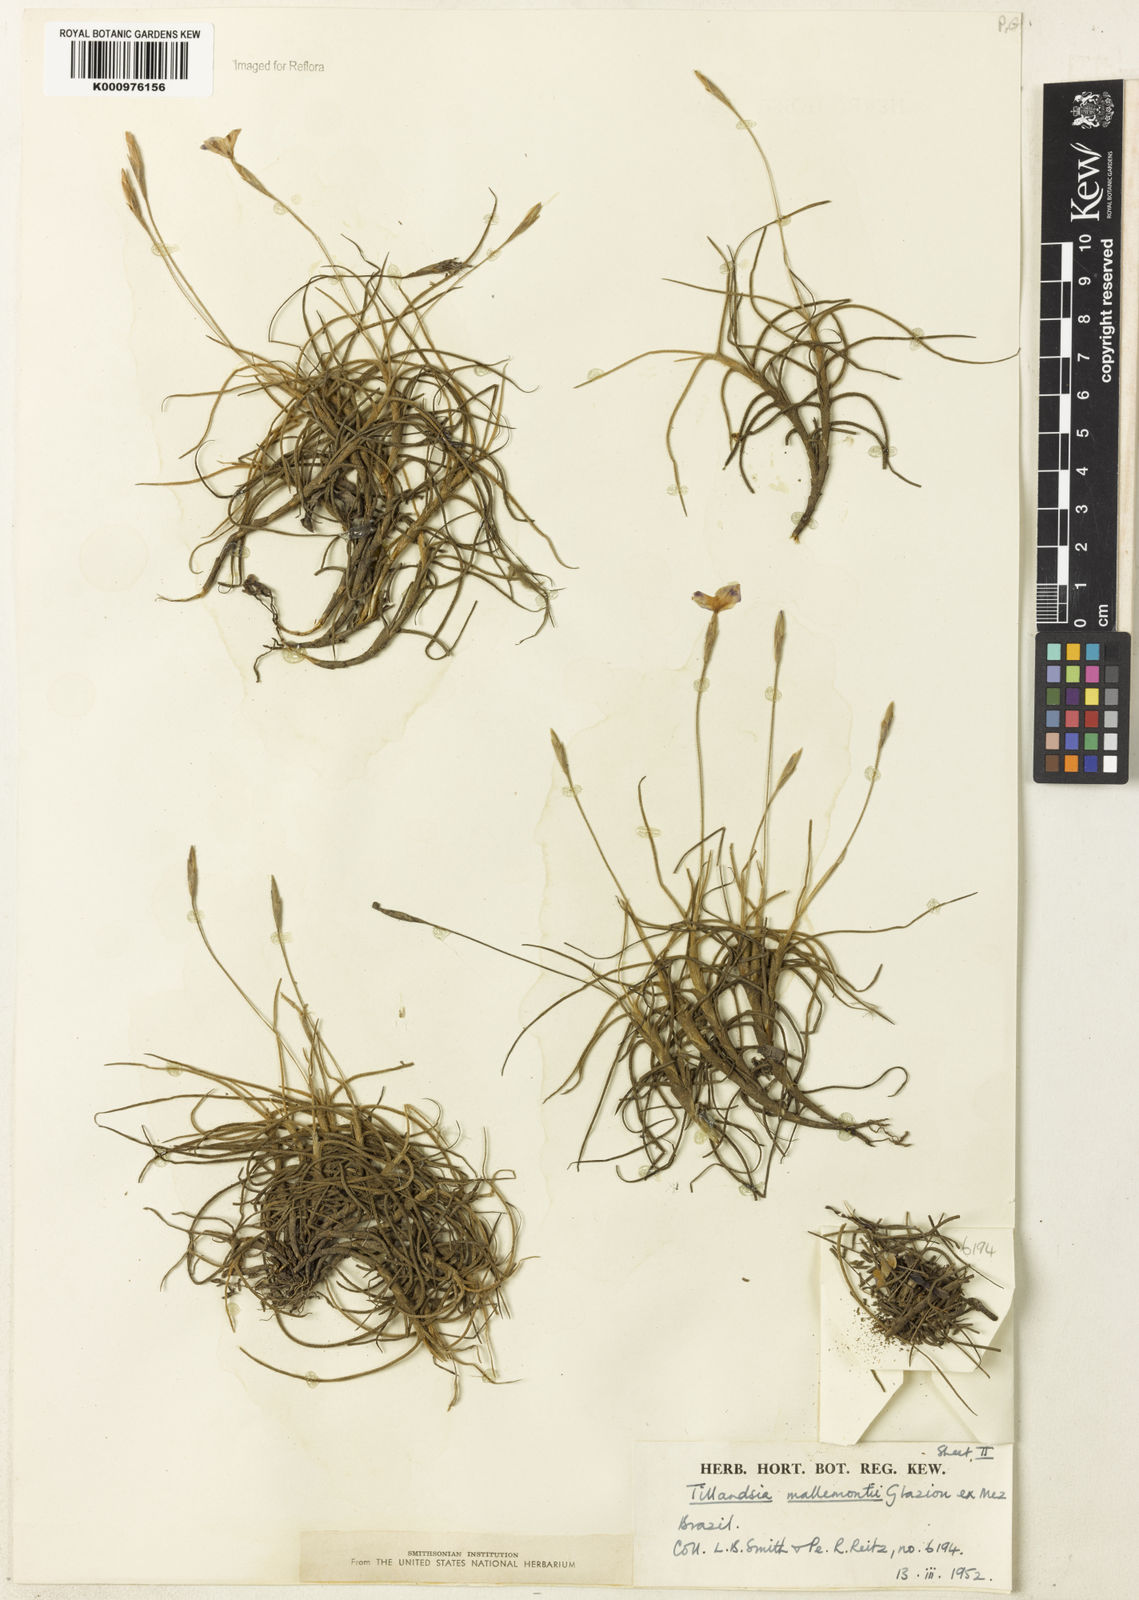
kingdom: Plantae
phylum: Tracheophyta
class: Liliopsida
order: Poales
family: Bromeliaceae
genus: Tillandsia
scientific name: Tillandsia mallemontii
